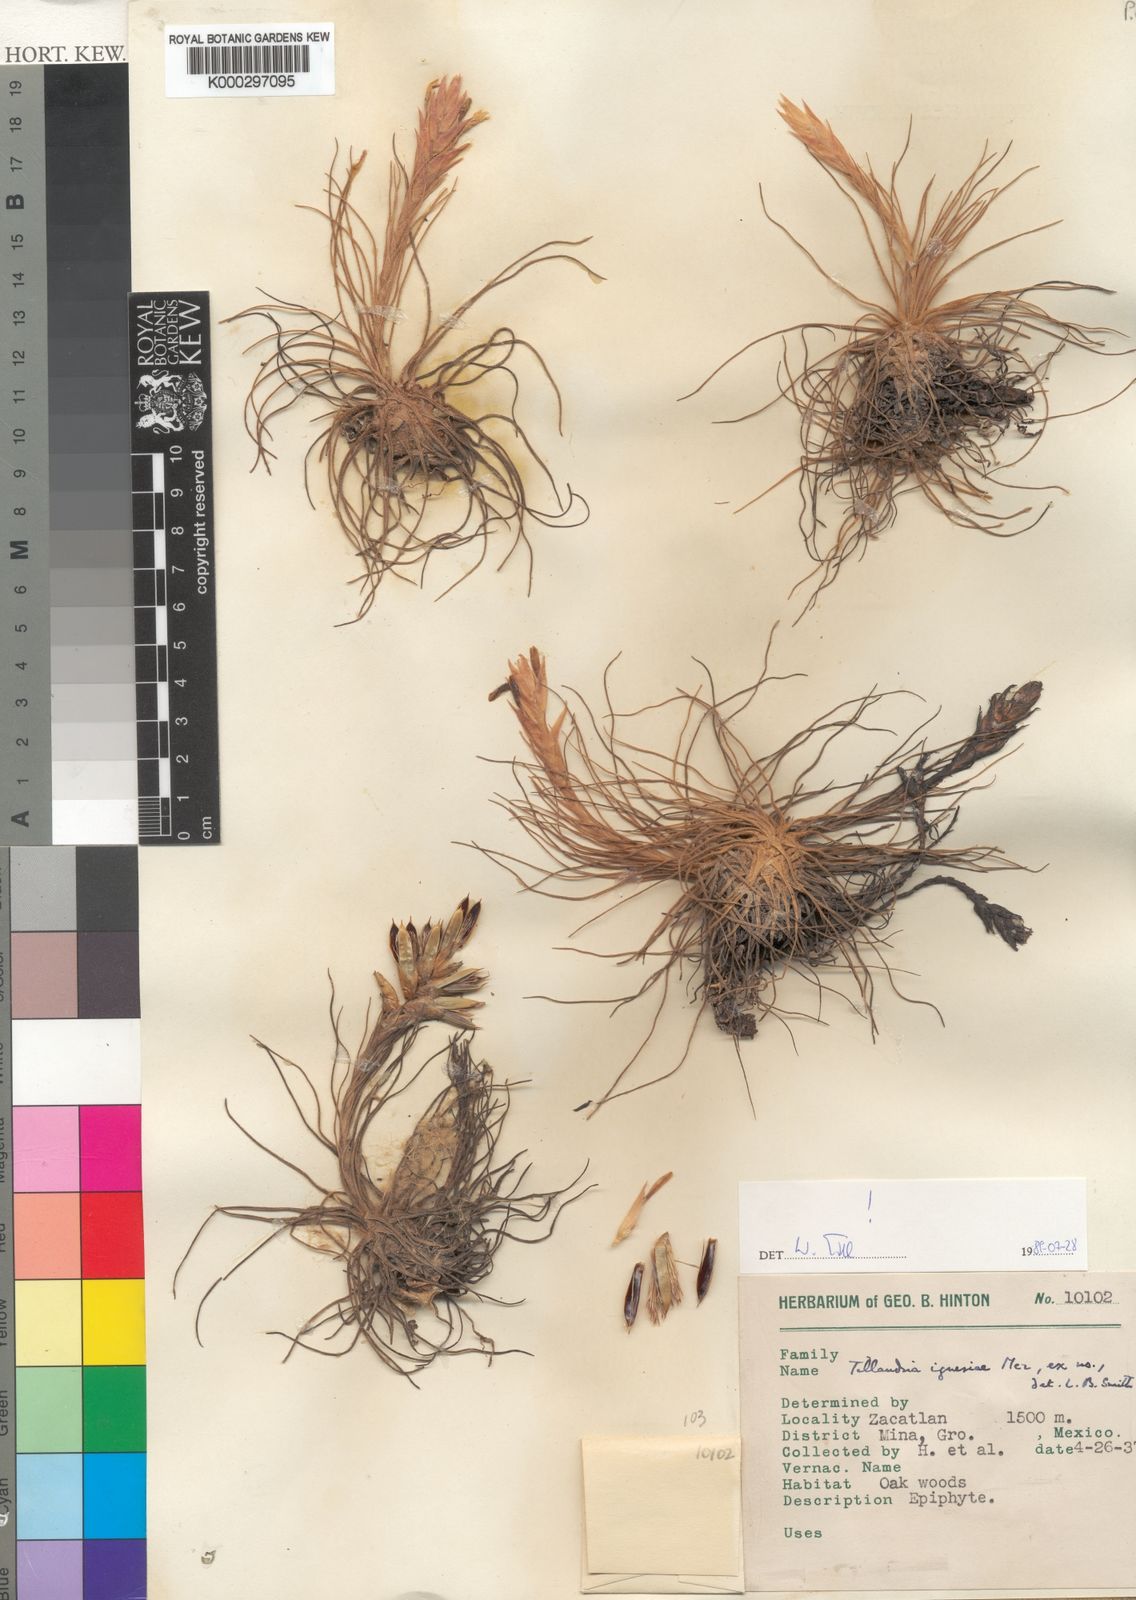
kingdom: Plantae
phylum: Tracheophyta
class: Liliopsida
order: Poales
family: Bromeliaceae
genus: Tillandsia
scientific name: Tillandsia ignesiae
